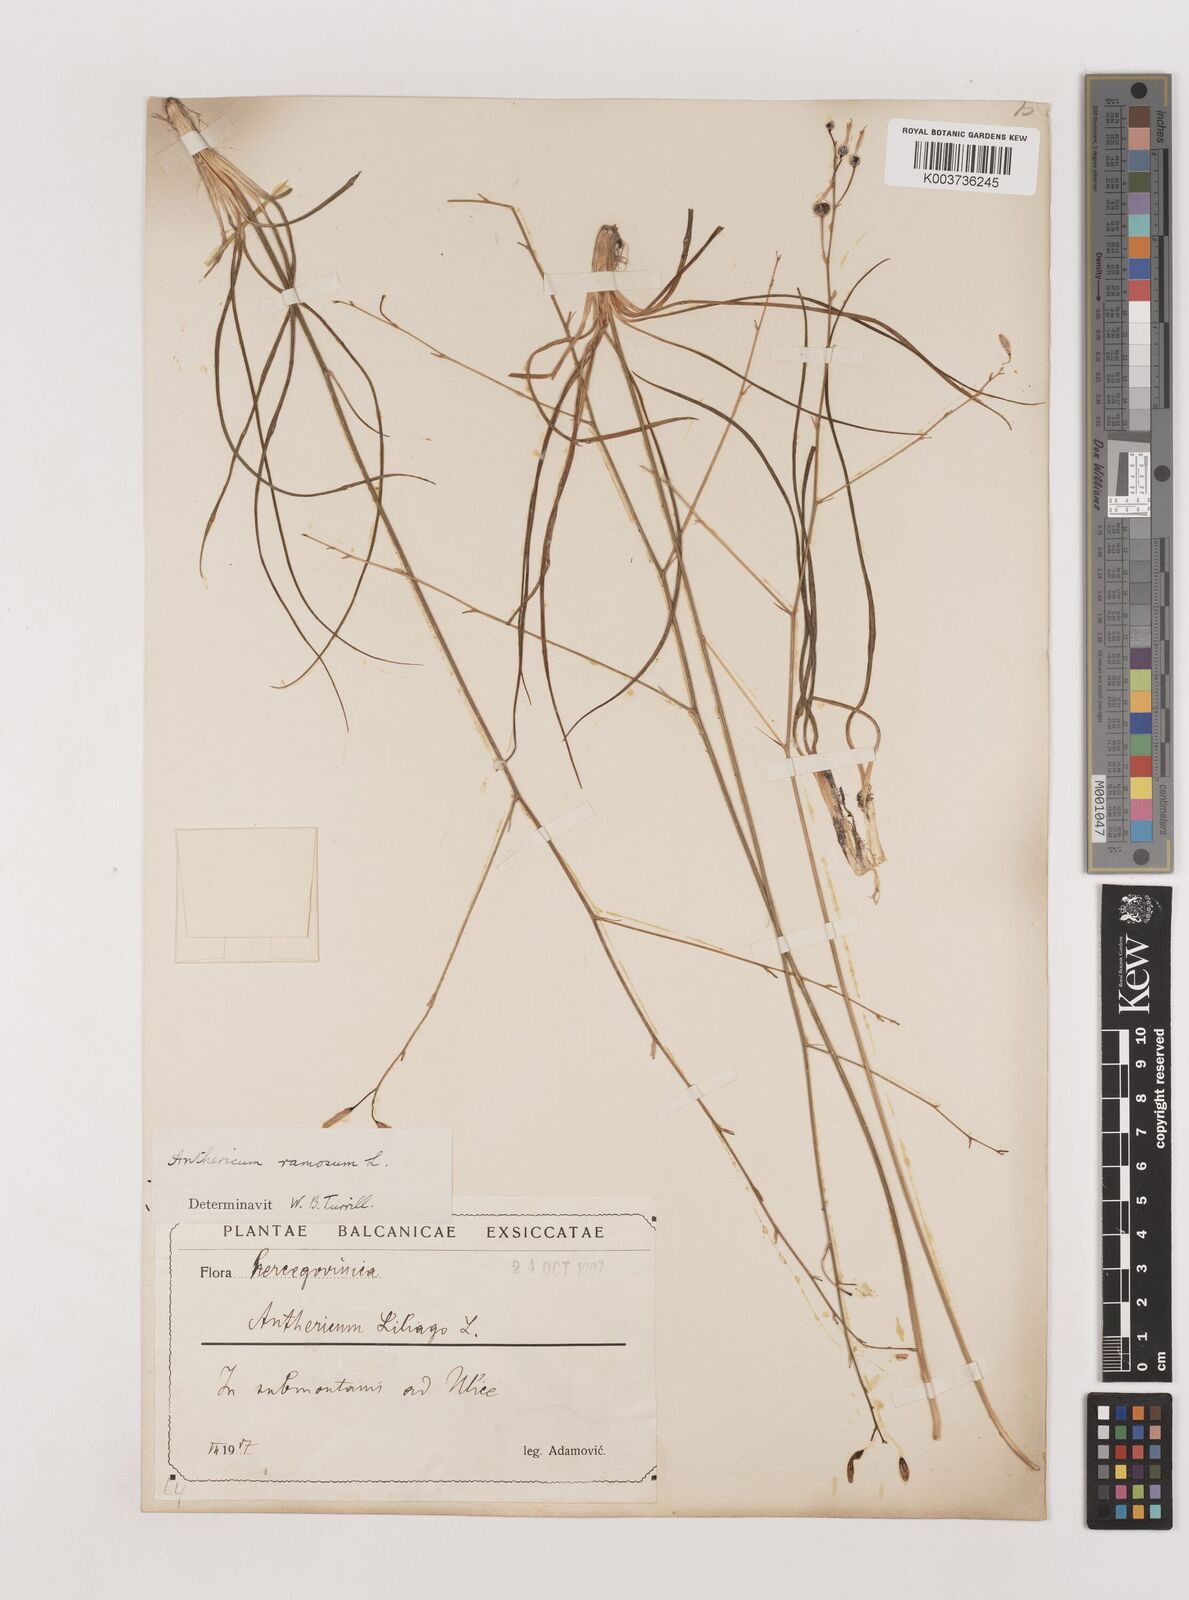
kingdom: Plantae
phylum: Tracheophyta
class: Liliopsida
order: Asparagales
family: Asparagaceae
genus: Anthericum
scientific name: Anthericum
